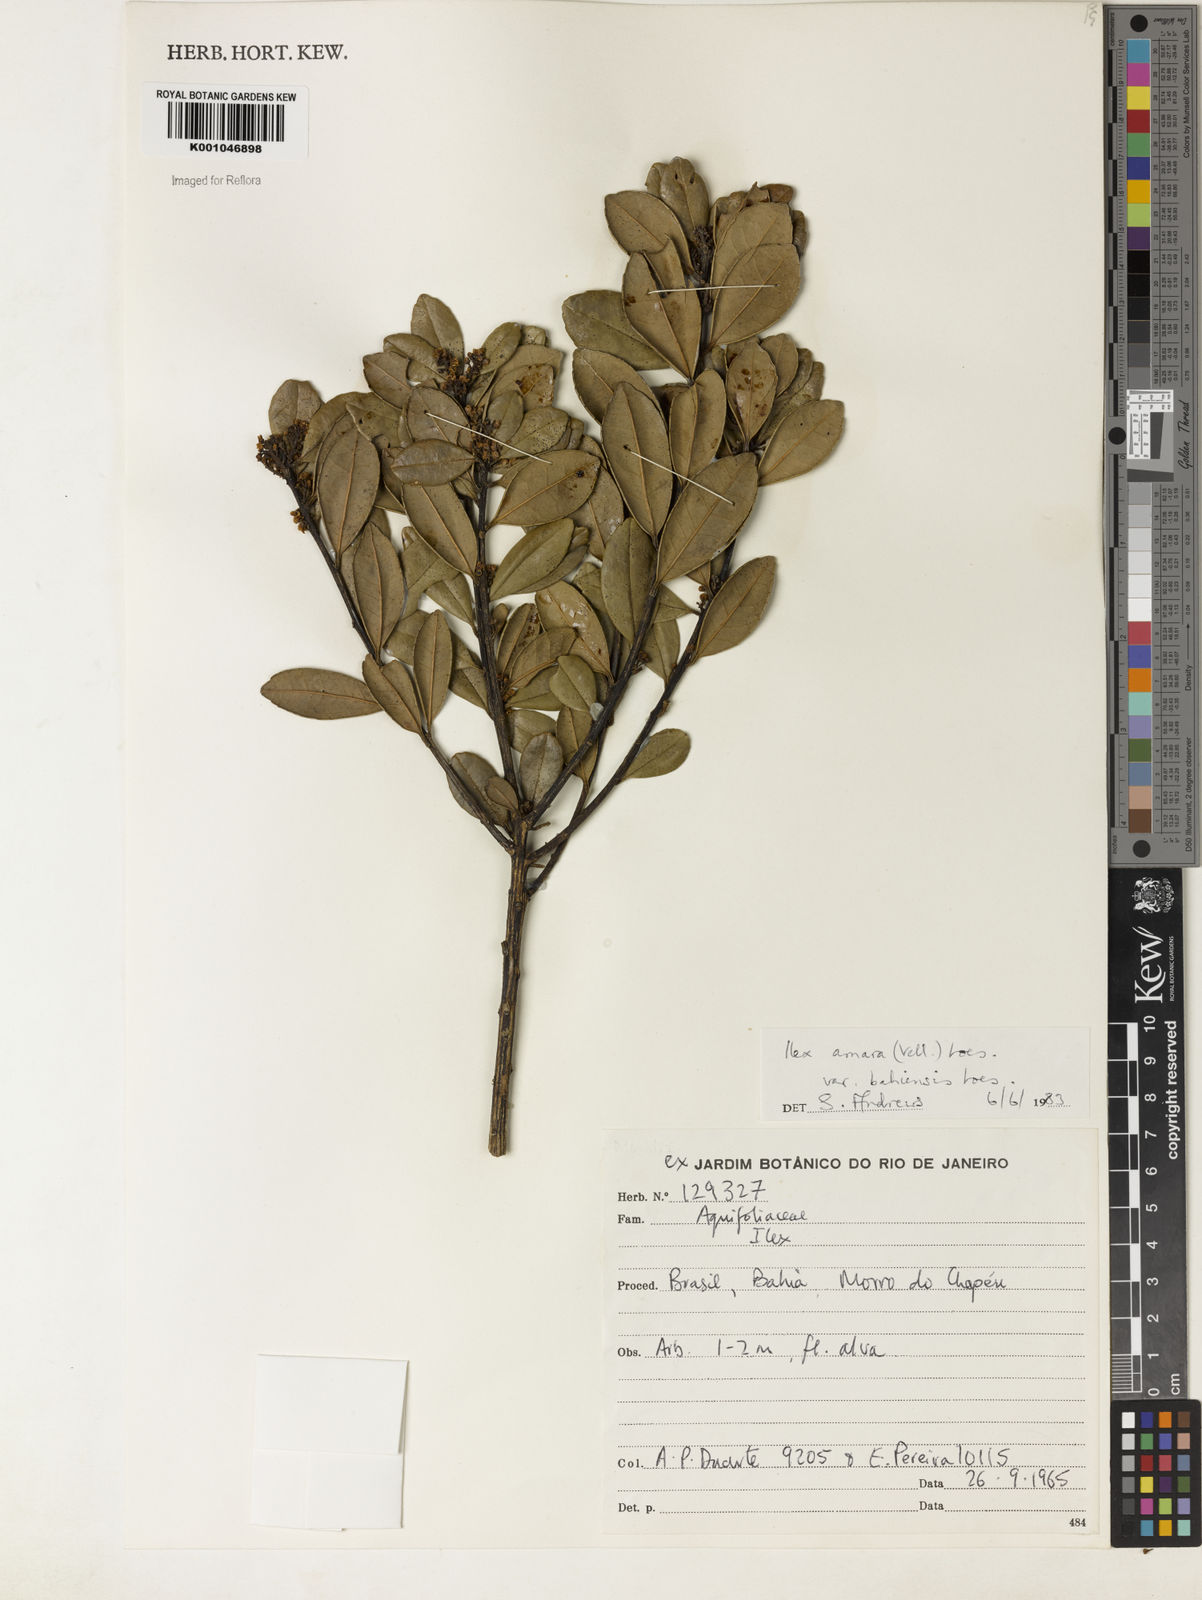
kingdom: Plantae
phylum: Tracheophyta
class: Magnoliopsida
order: Aquifoliales
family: Aquifoliaceae
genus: Ilex
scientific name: Ilex dumosa
